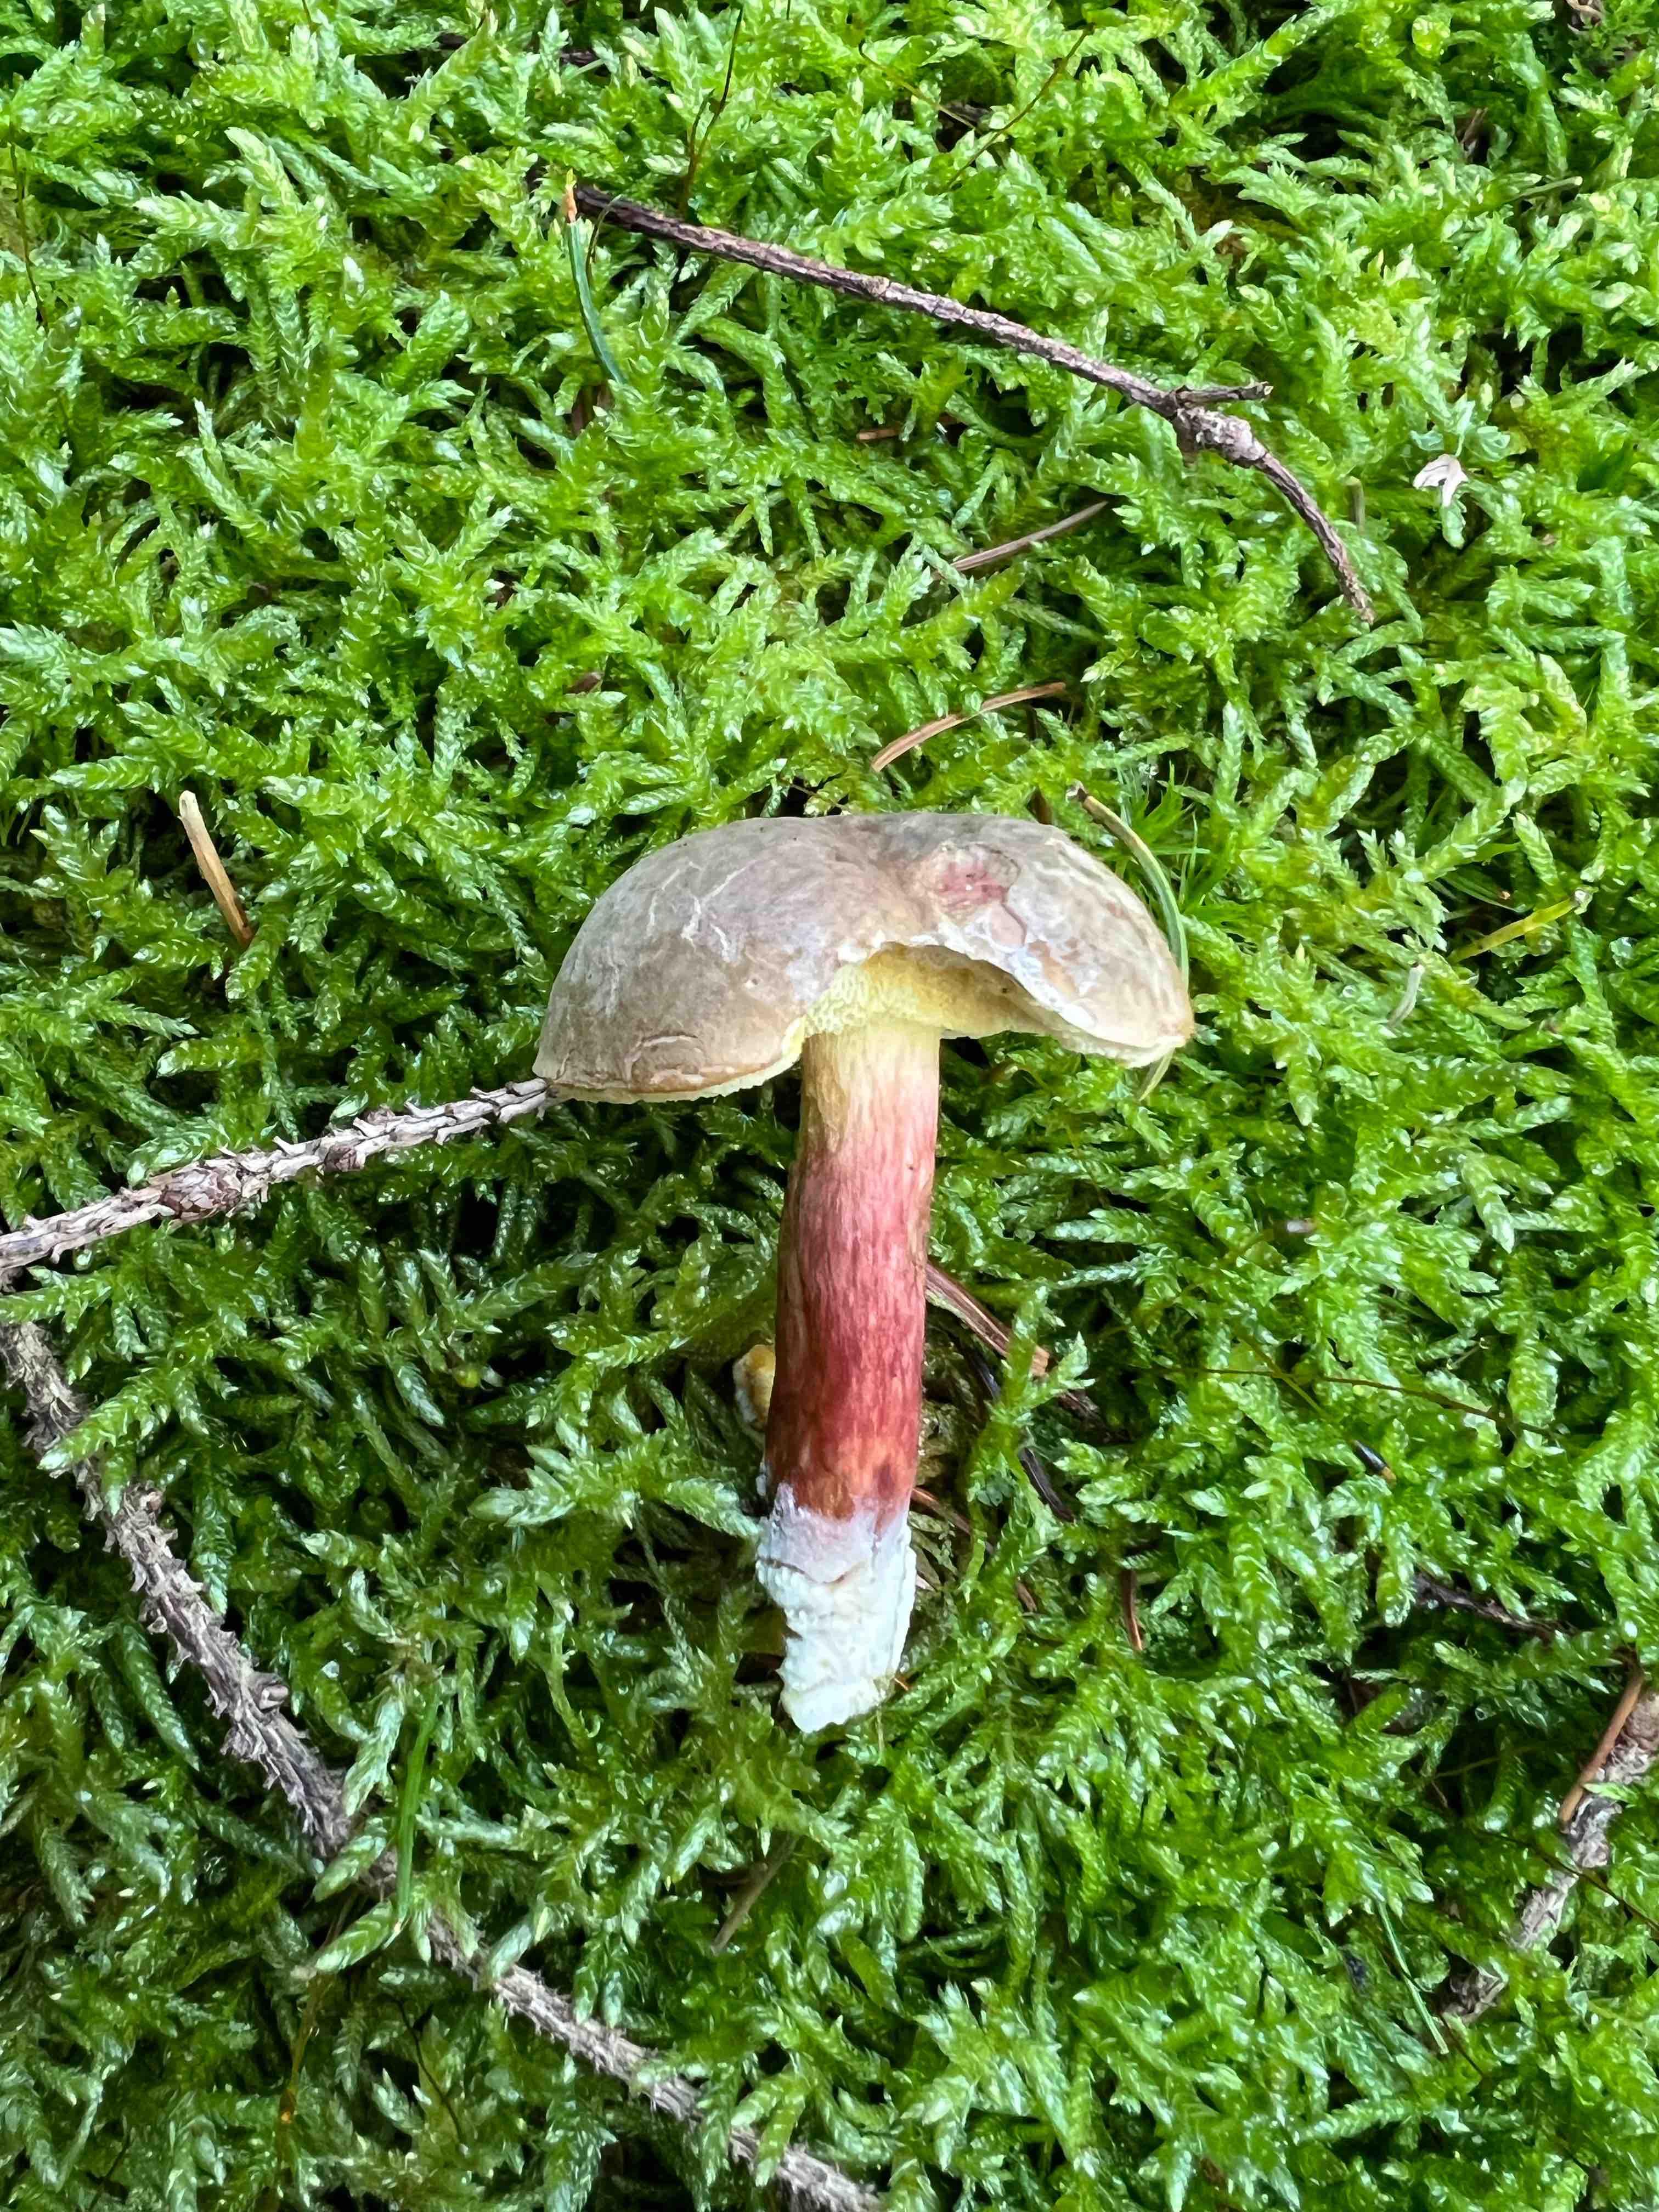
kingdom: Fungi
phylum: Basidiomycota
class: Agaricomycetes
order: Boletales
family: Boletaceae
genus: Xerocomellus
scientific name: Xerocomellus pruinatus
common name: dugget rørhat
